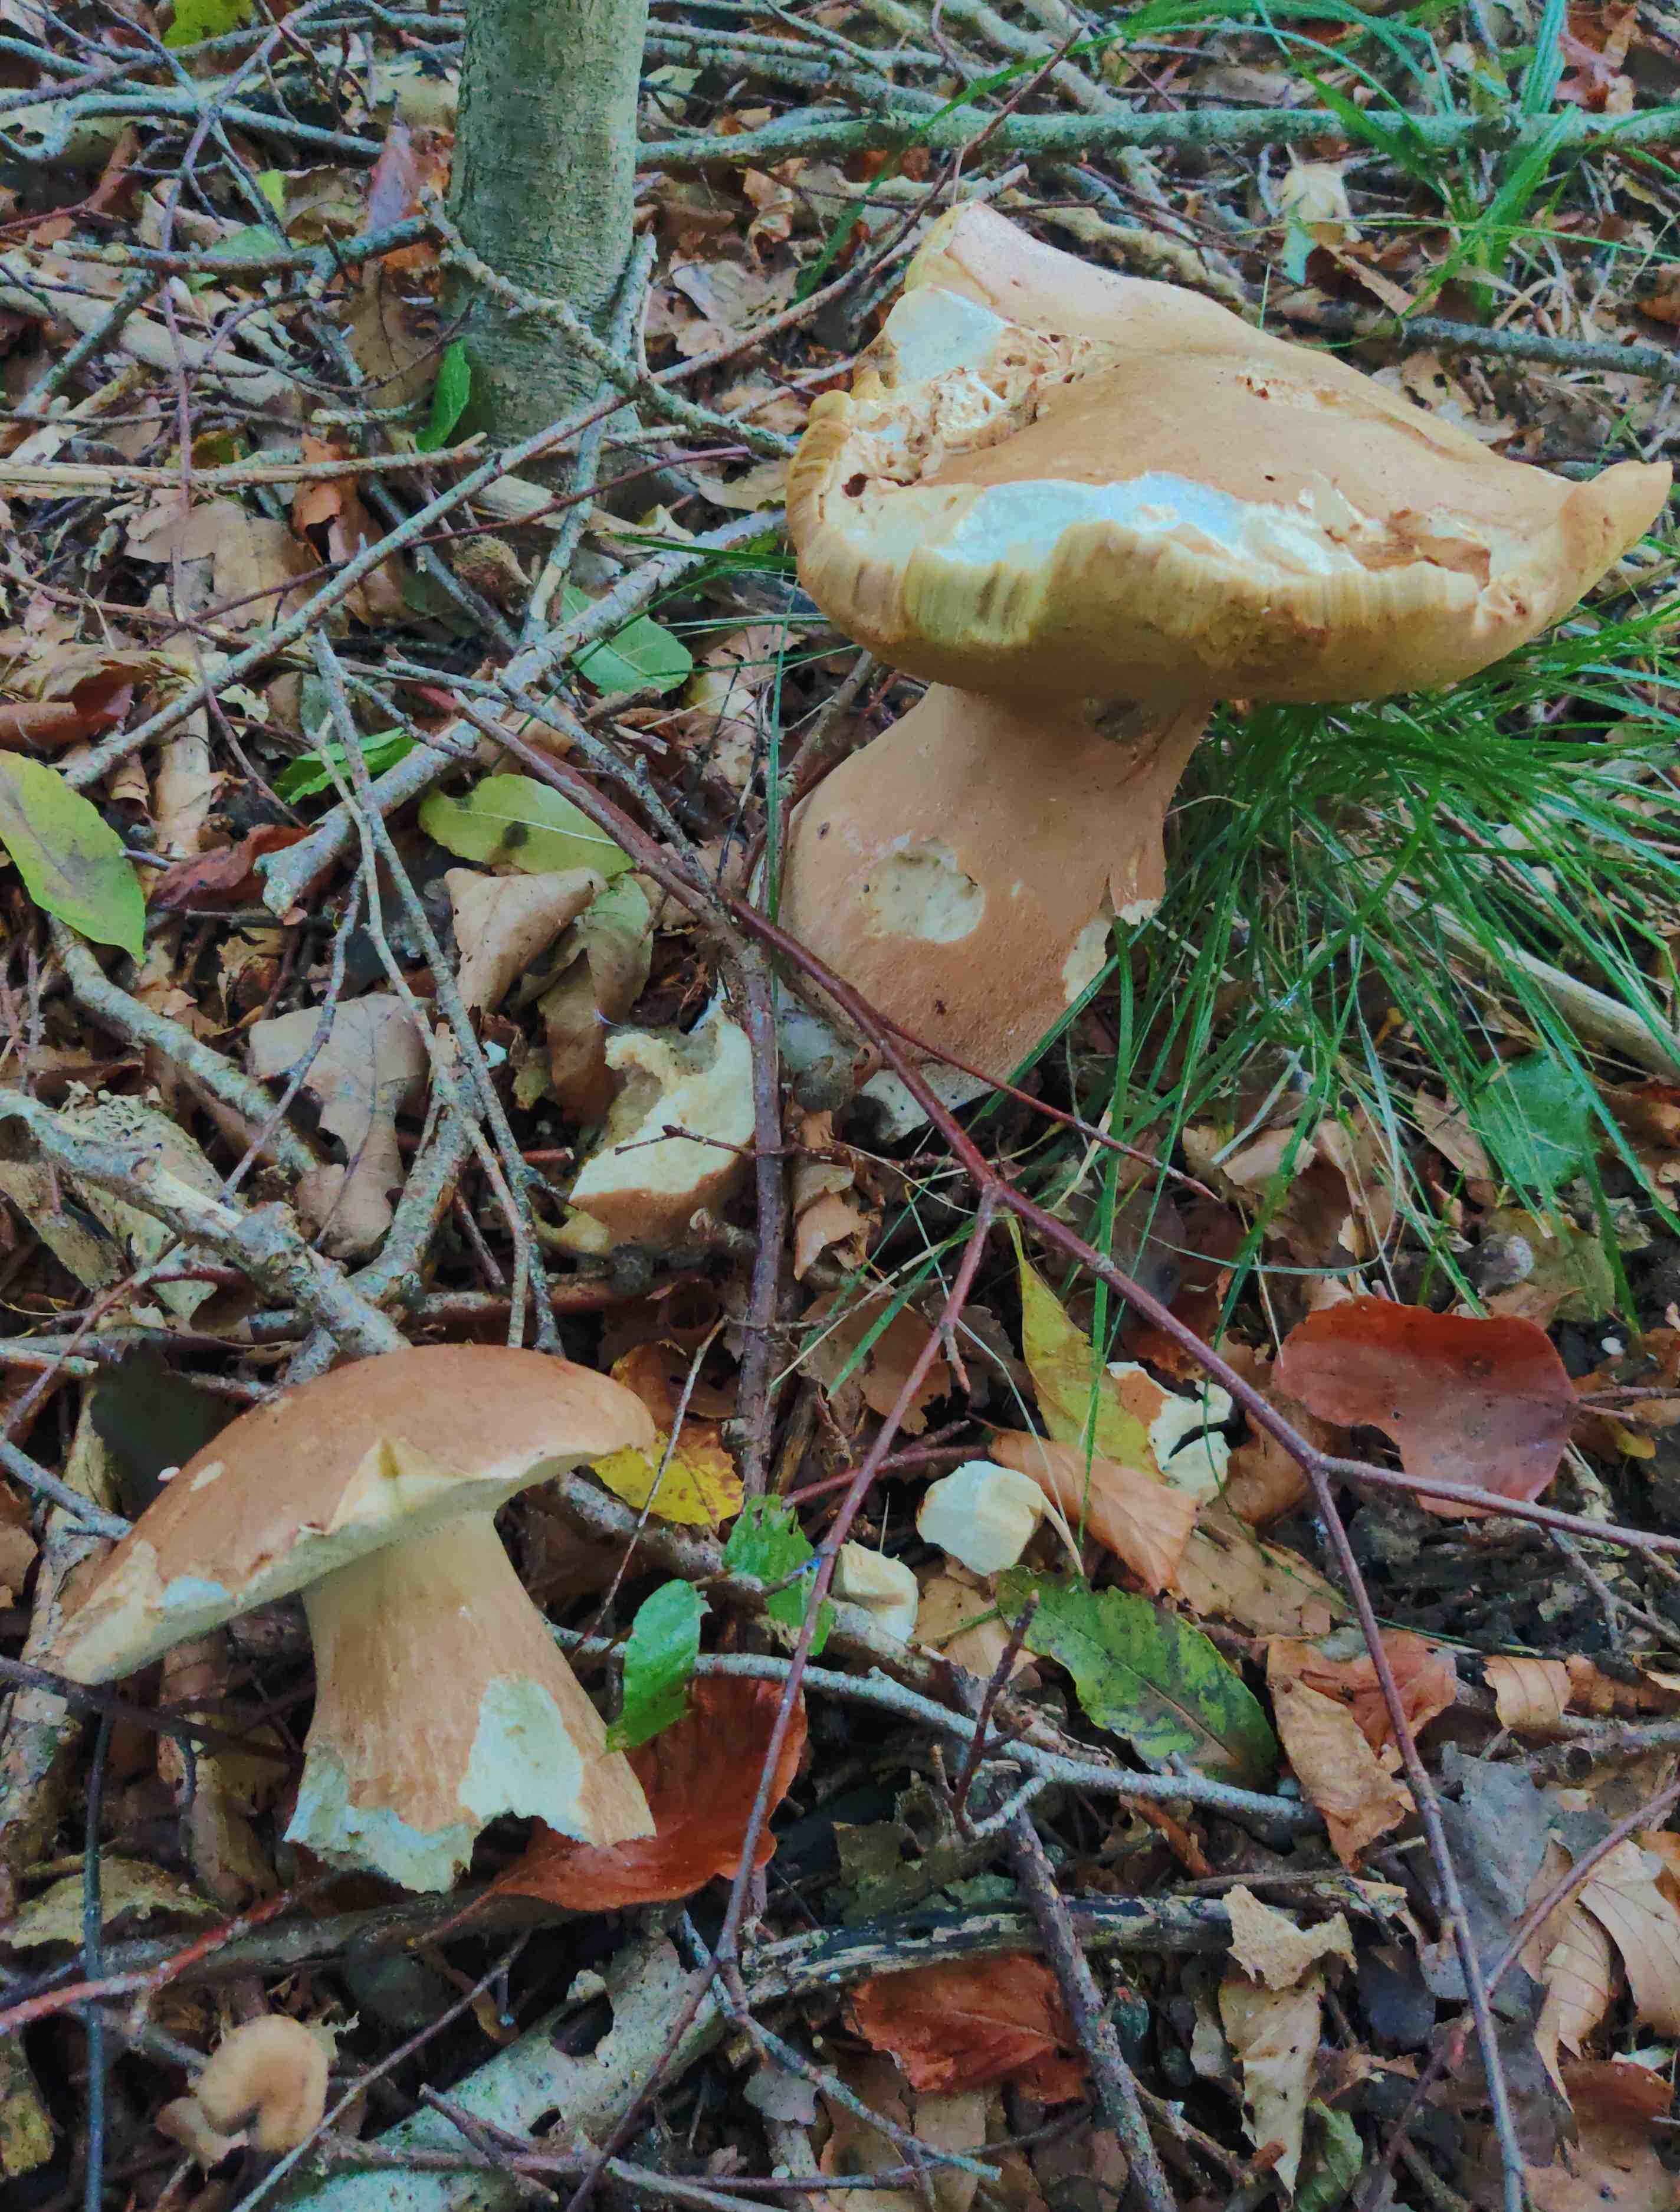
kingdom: Fungi
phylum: Basidiomycota
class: Agaricomycetes
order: Boletales
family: Boletaceae
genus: Boletus
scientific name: Boletus reticulatus
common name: sommer-rørhat
